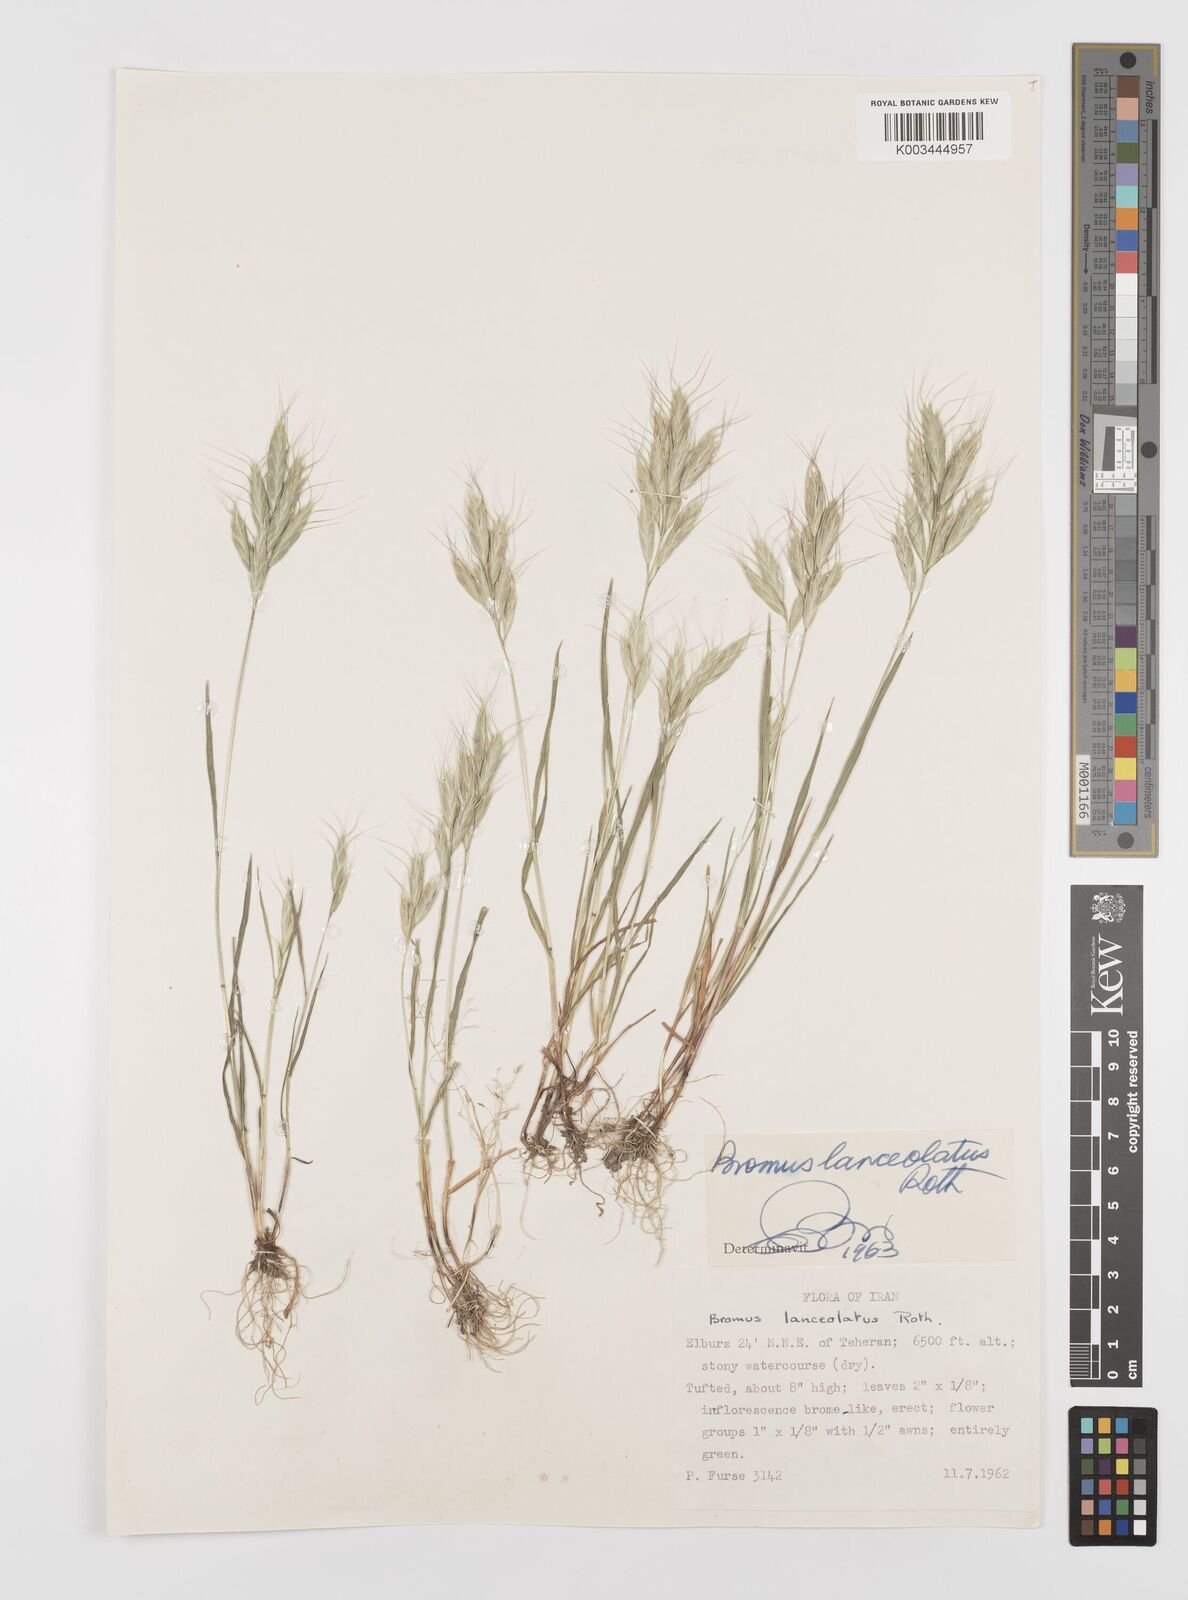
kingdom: Plantae
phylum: Tracheophyta
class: Liliopsida
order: Poales
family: Poaceae
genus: Bromus
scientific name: Bromus lanceolatus
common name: Mediterranean brome
